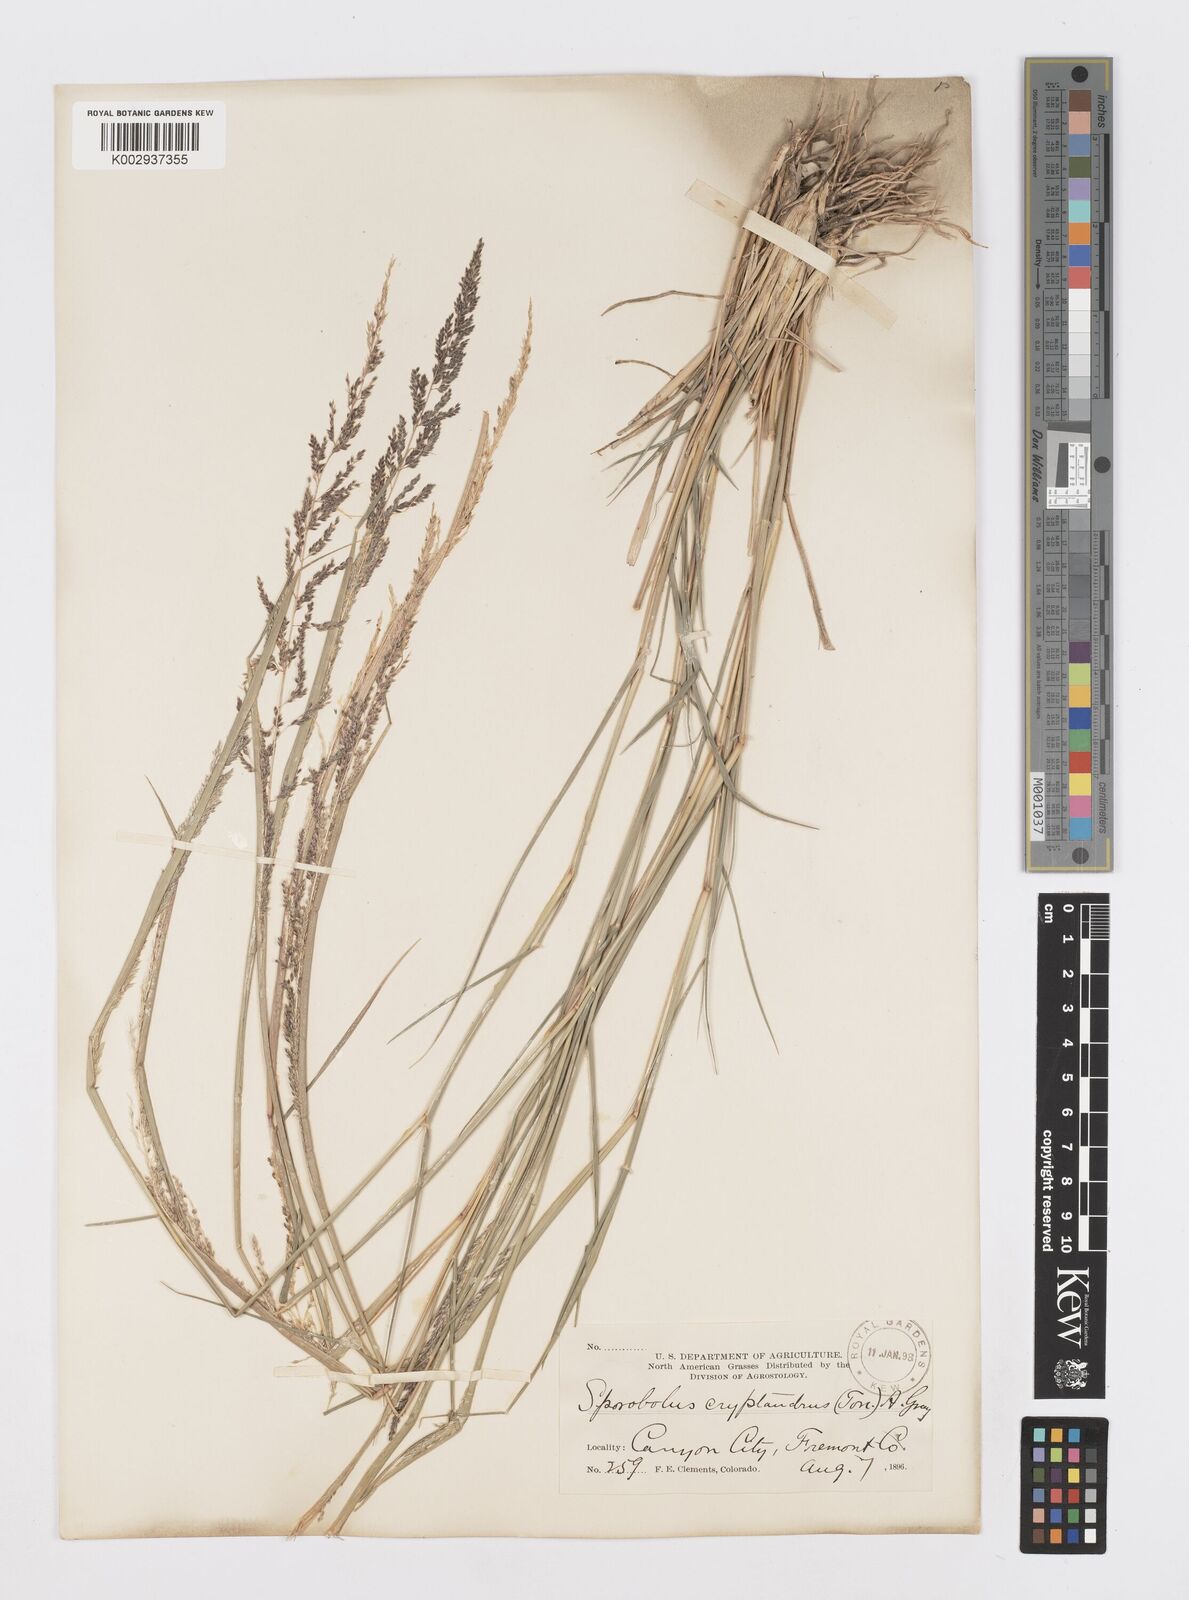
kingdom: Plantae
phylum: Tracheophyta
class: Liliopsida
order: Poales
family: Poaceae
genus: Sporobolus
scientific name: Sporobolus cryptandrus
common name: Sand dropseed
